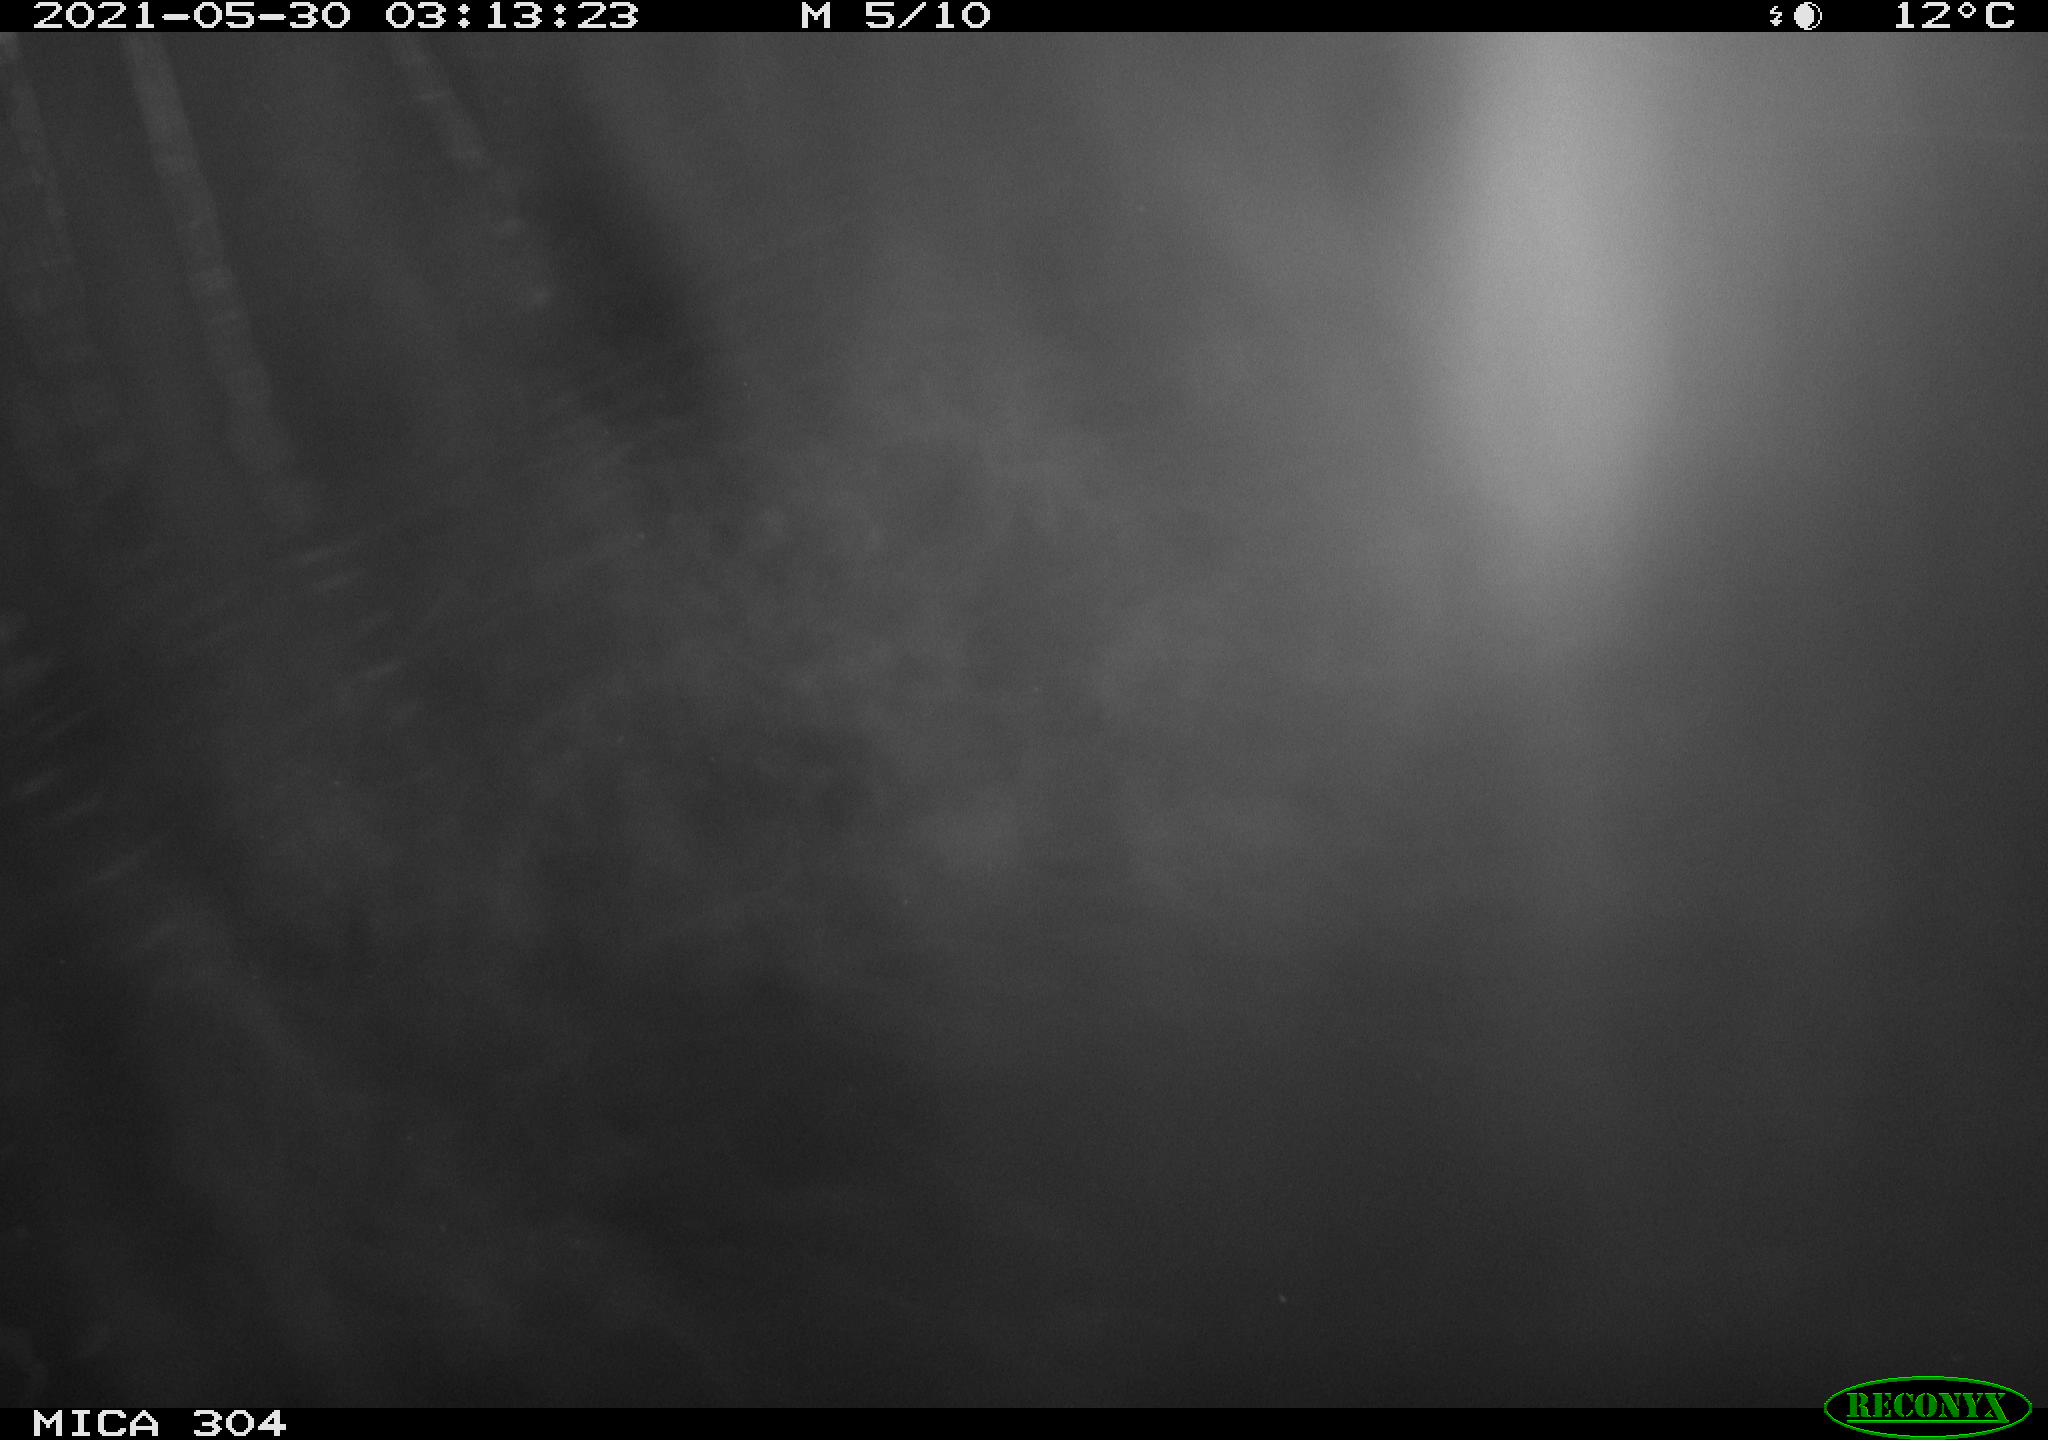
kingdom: Animalia
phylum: Chordata
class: Aves
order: Anseriformes
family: Anatidae
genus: Anas
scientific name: Anas platyrhynchos
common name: Mallard
